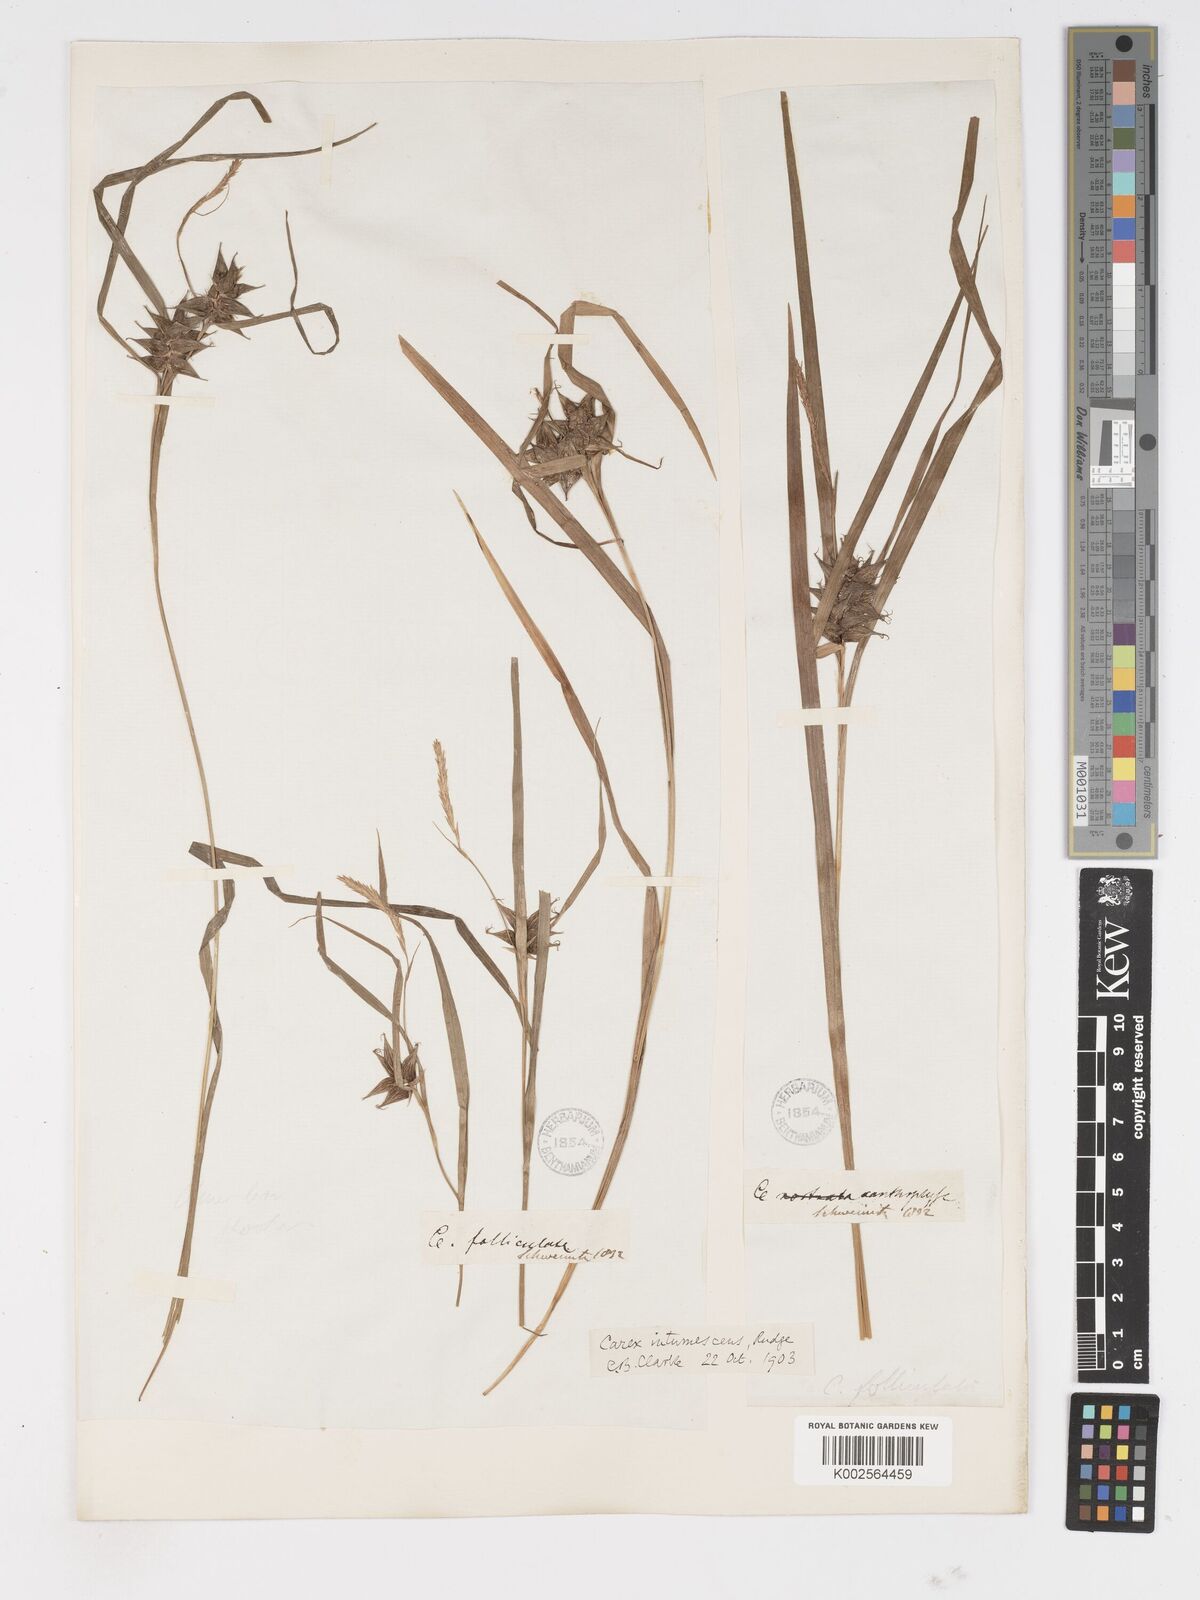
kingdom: Plantae
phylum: Tracheophyta
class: Liliopsida
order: Poales
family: Cyperaceae
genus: Carex
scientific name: Carex intumescens
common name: Greater bladder sedge
